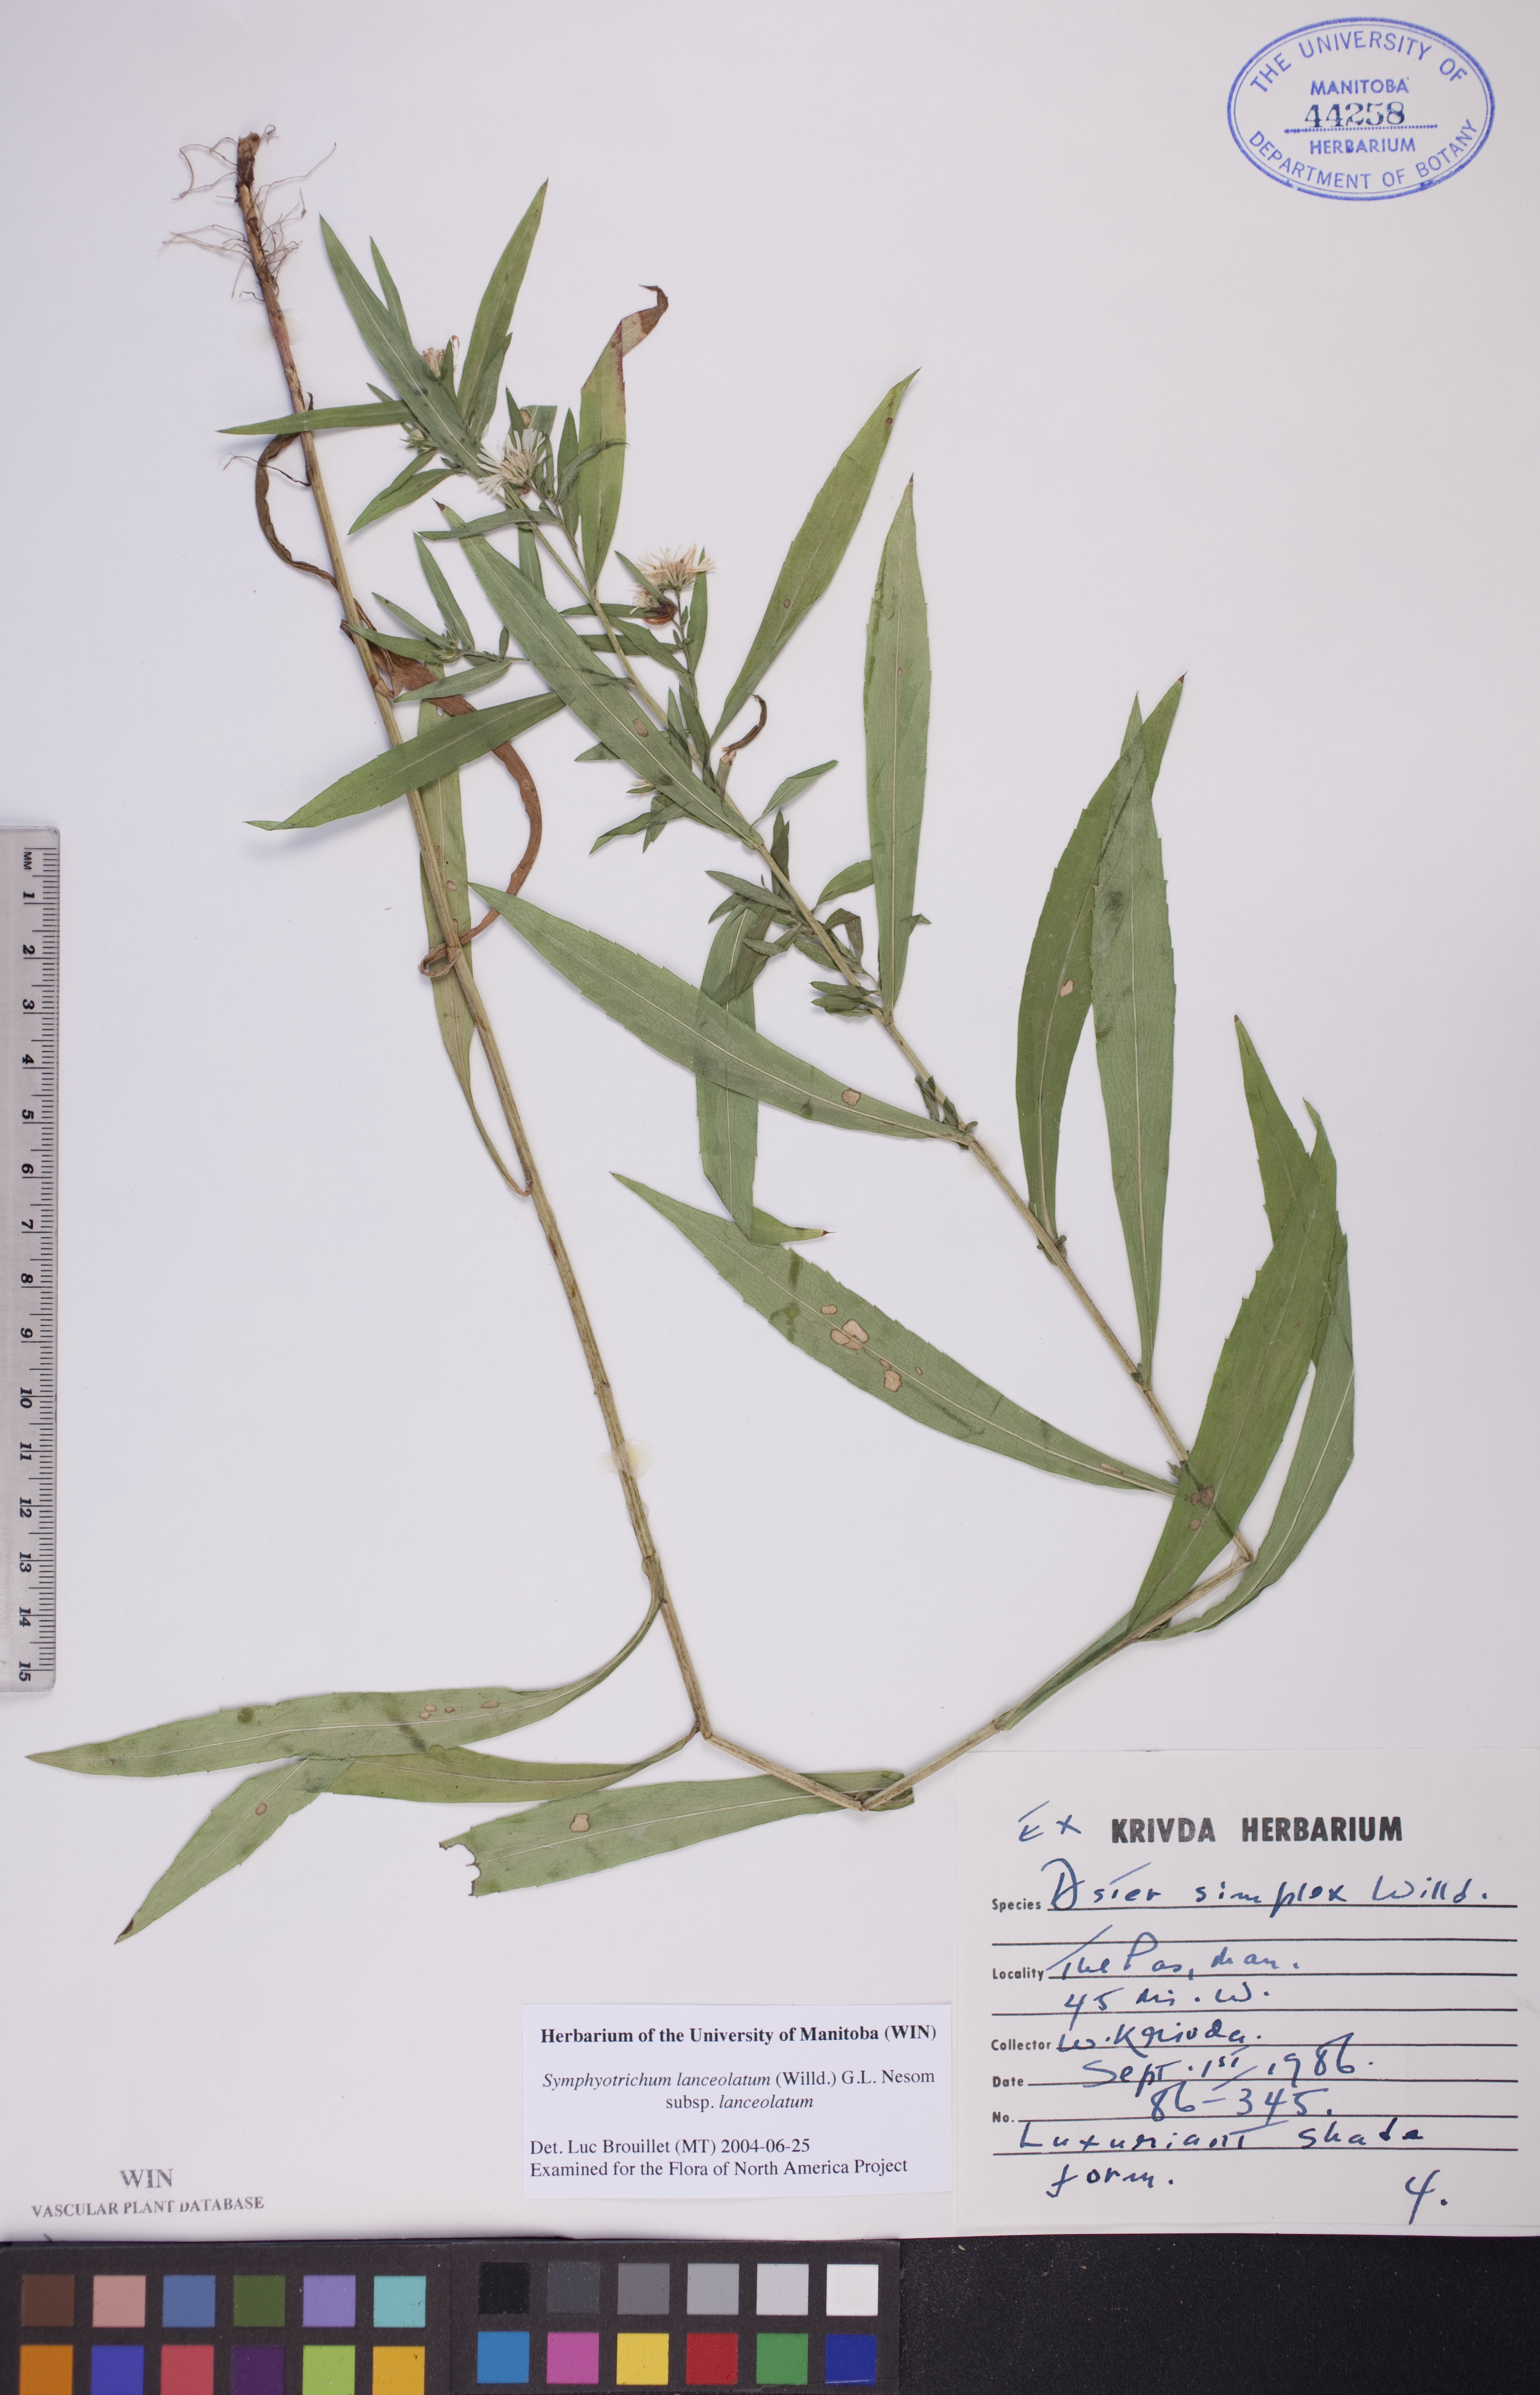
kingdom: Plantae
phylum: Tracheophyta
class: Magnoliopsida
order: Asterales
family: Asteraceae
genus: Symphyotrichum
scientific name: Symphyotrichum lanceolatum
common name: Panicled aster
